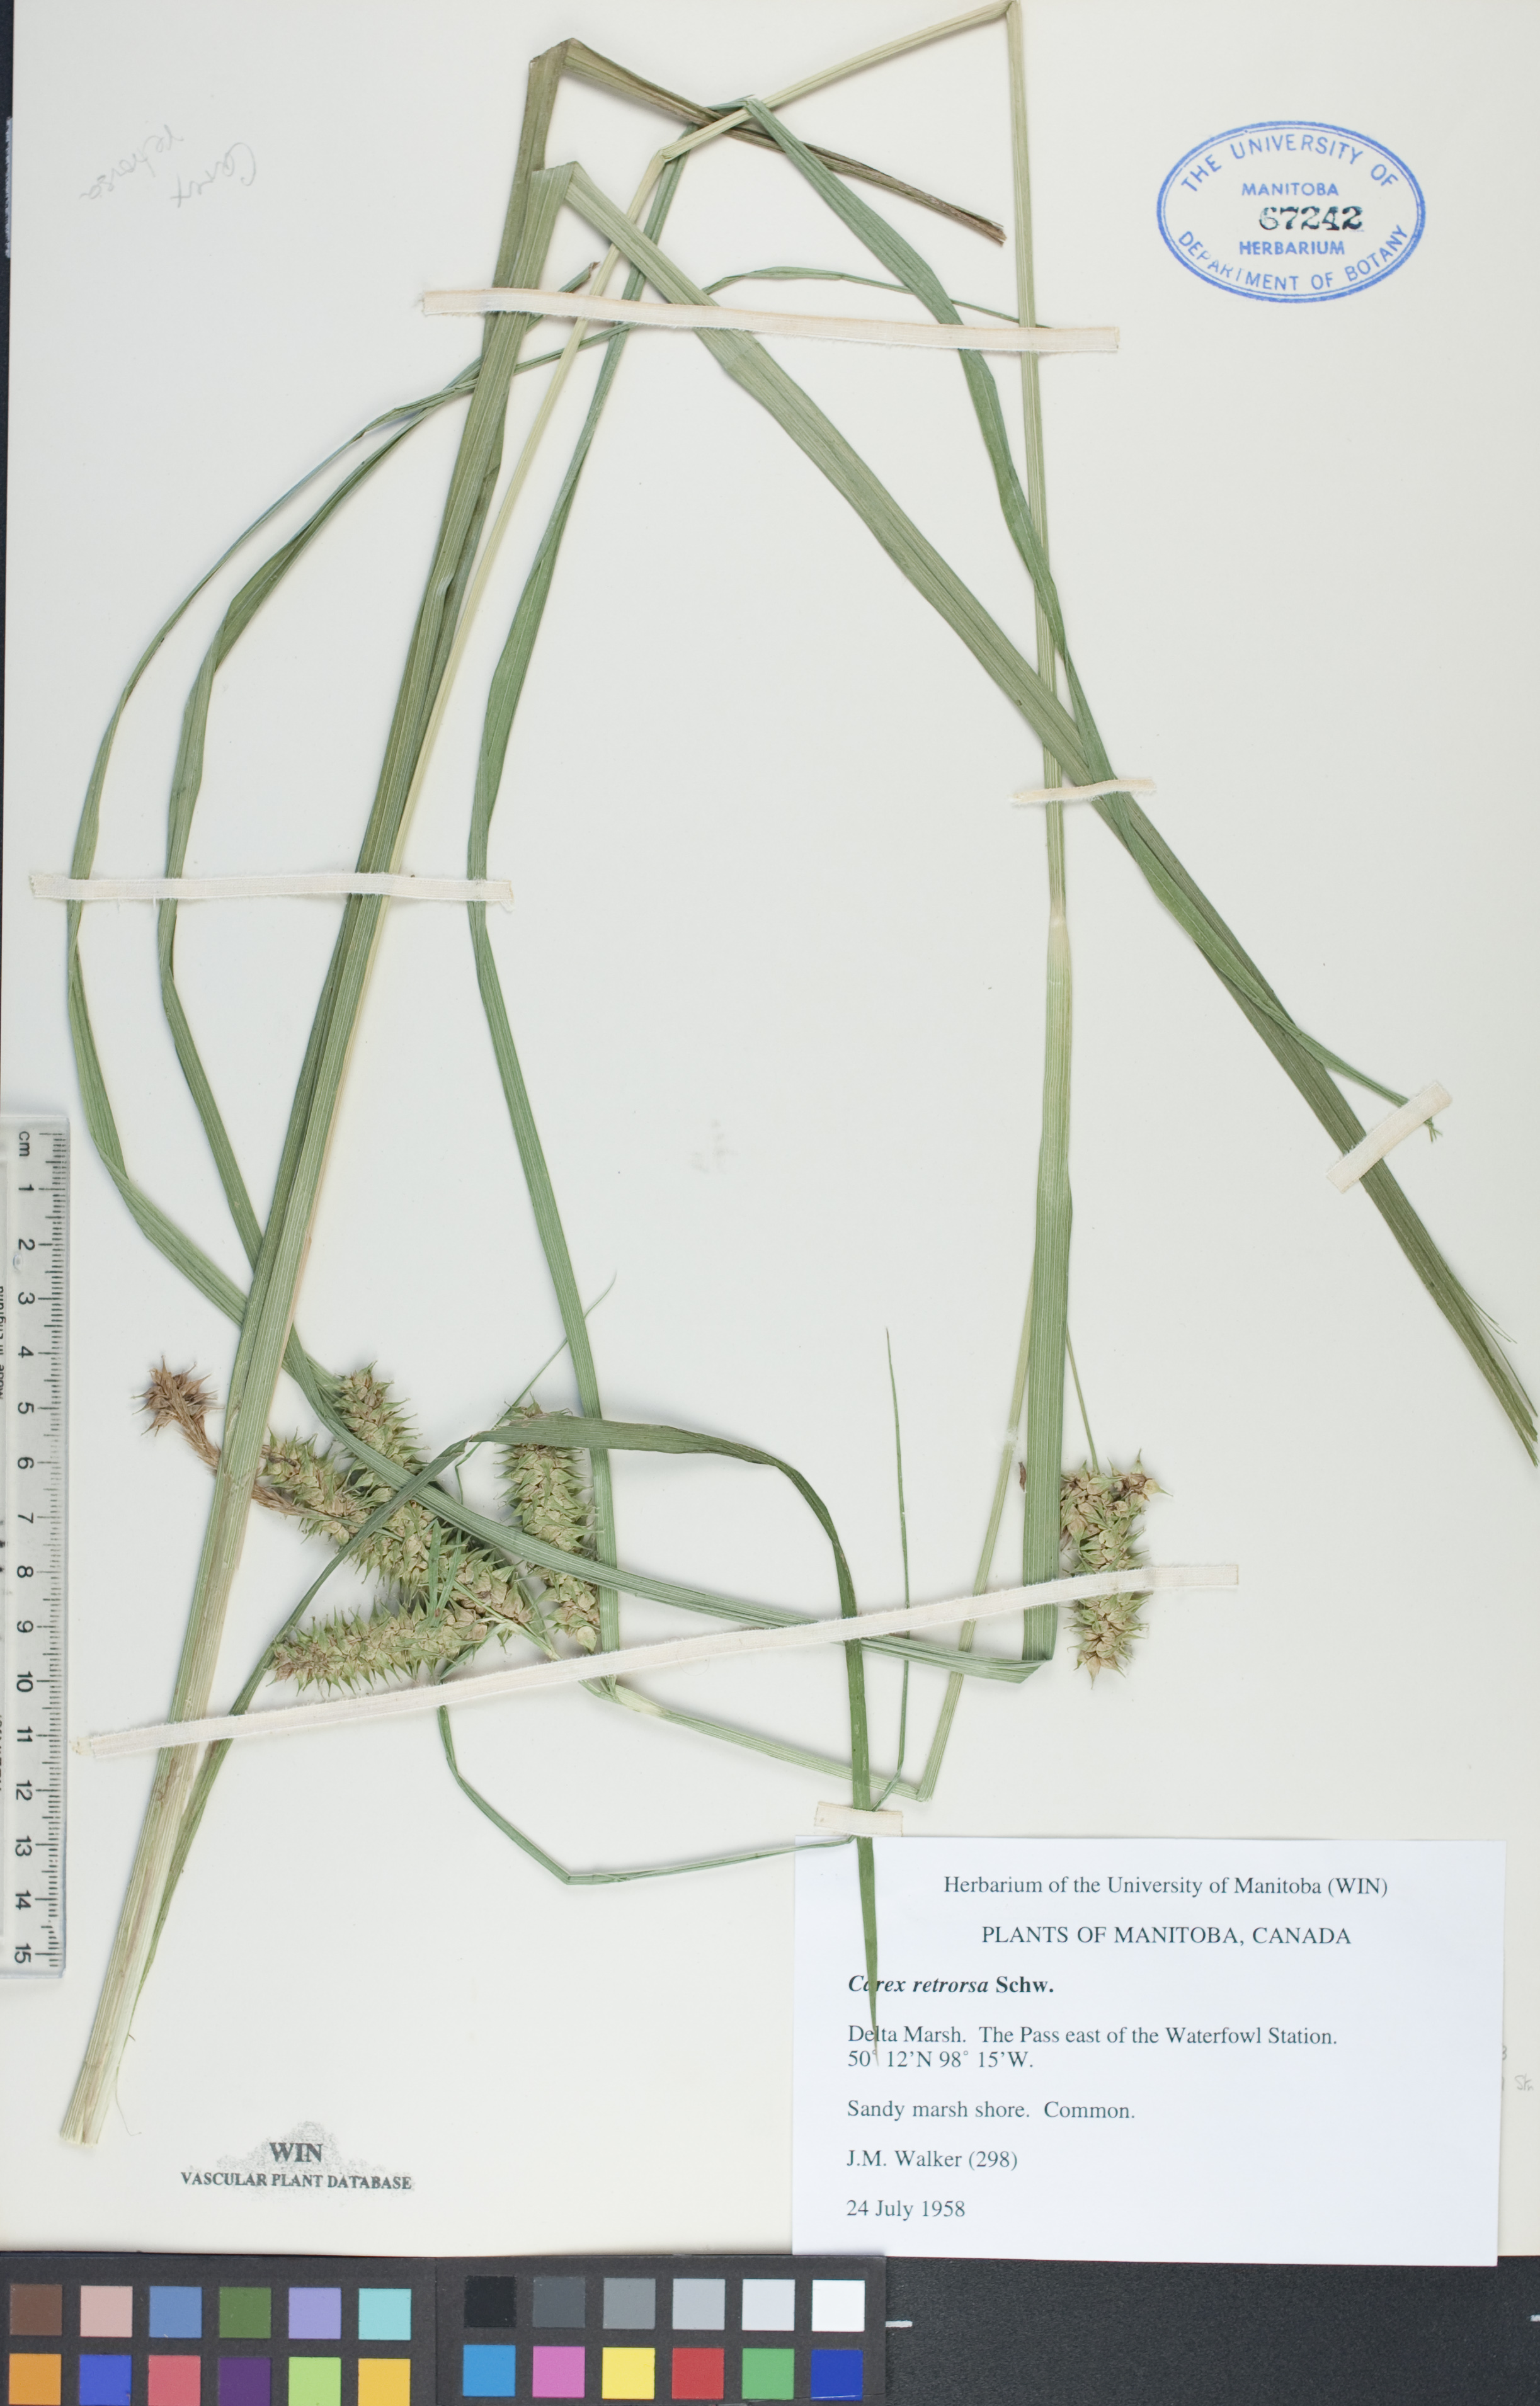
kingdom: Plantae
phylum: Tracheophyta
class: Liliopsida
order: Poales
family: Cyperaceae
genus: Carex
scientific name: Carex retrorsa
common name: Knot-sheath sedge
